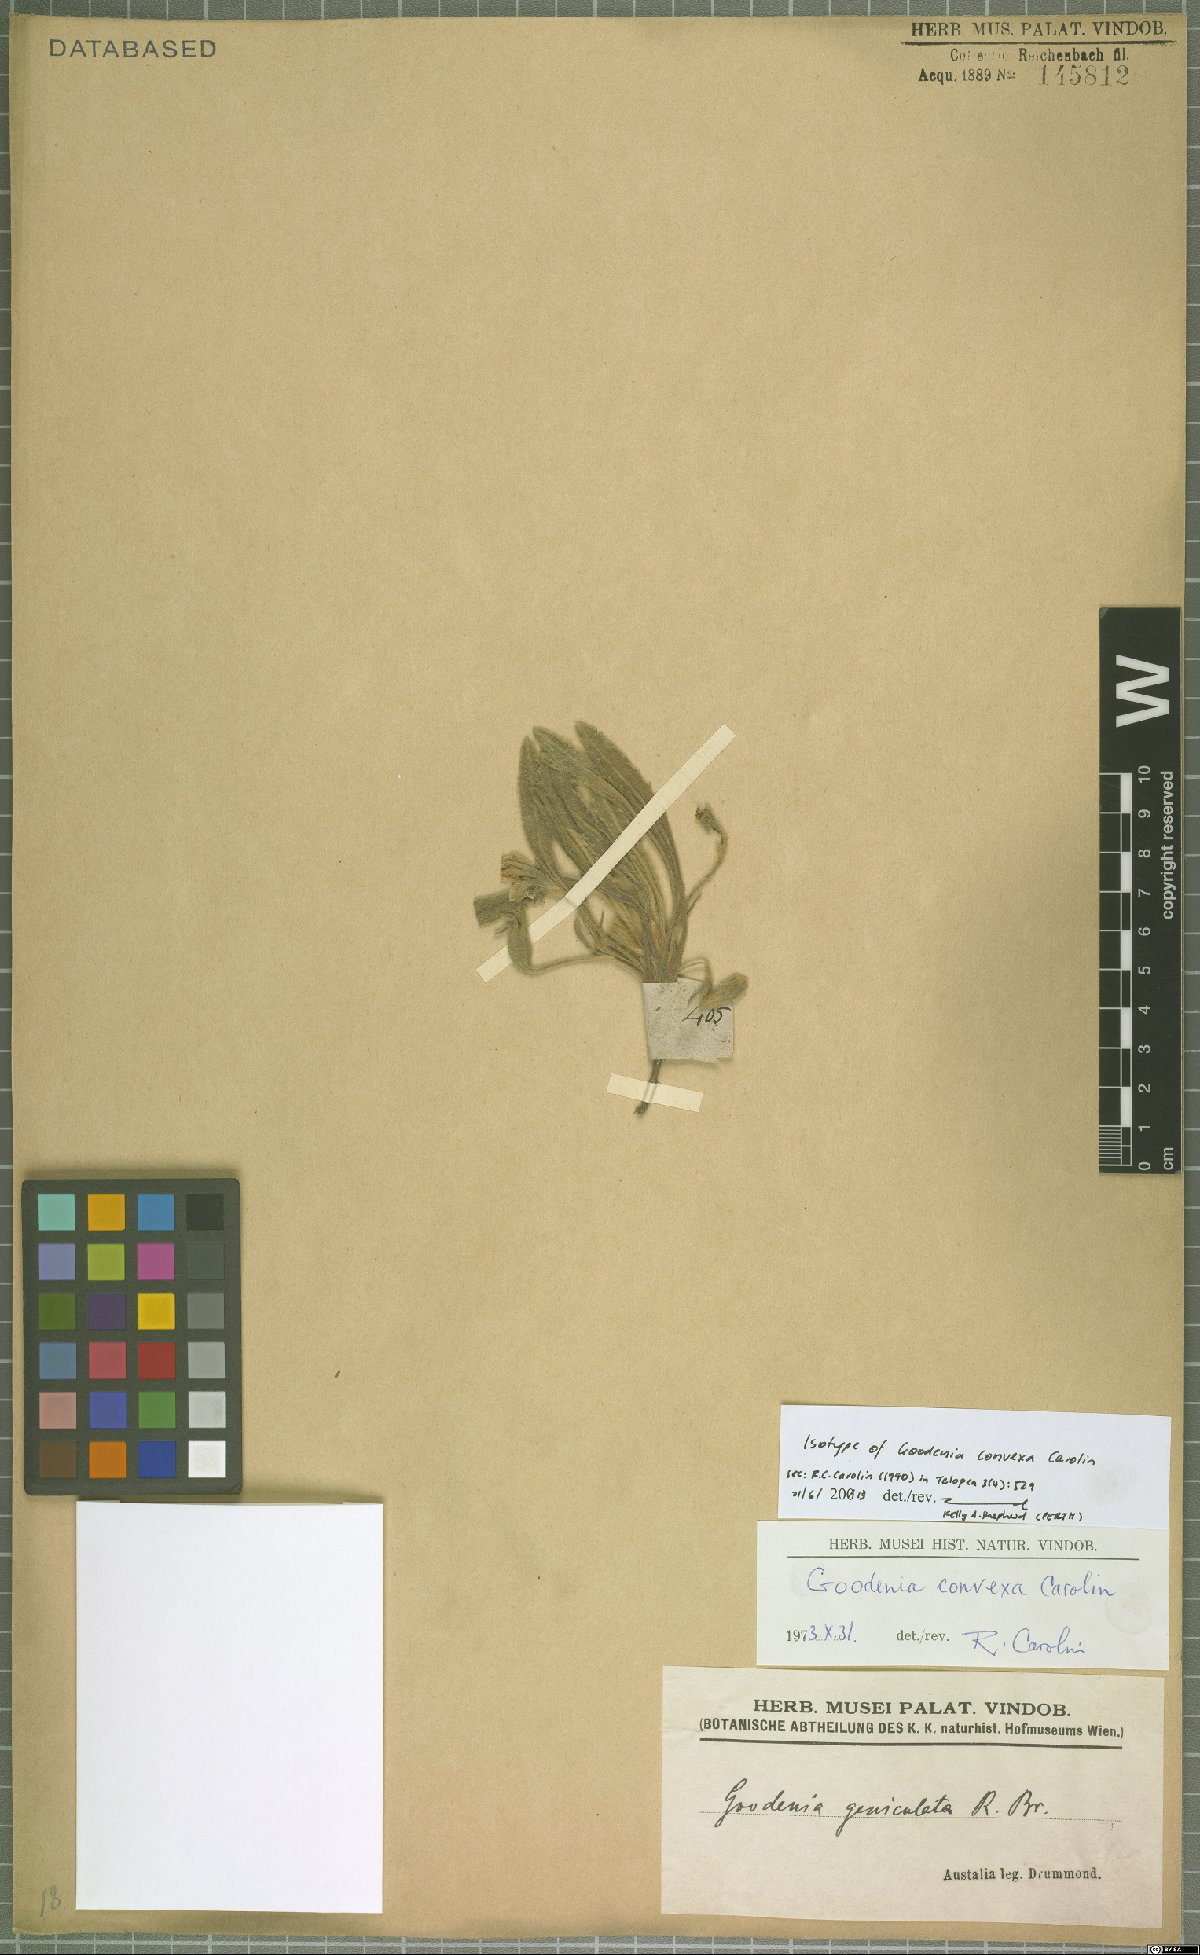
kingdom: Plantae
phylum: Tracheophyta
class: Magnoliopsida
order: Asterales
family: Goodeniaceae
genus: Goodenia
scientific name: Goodenia convexa
